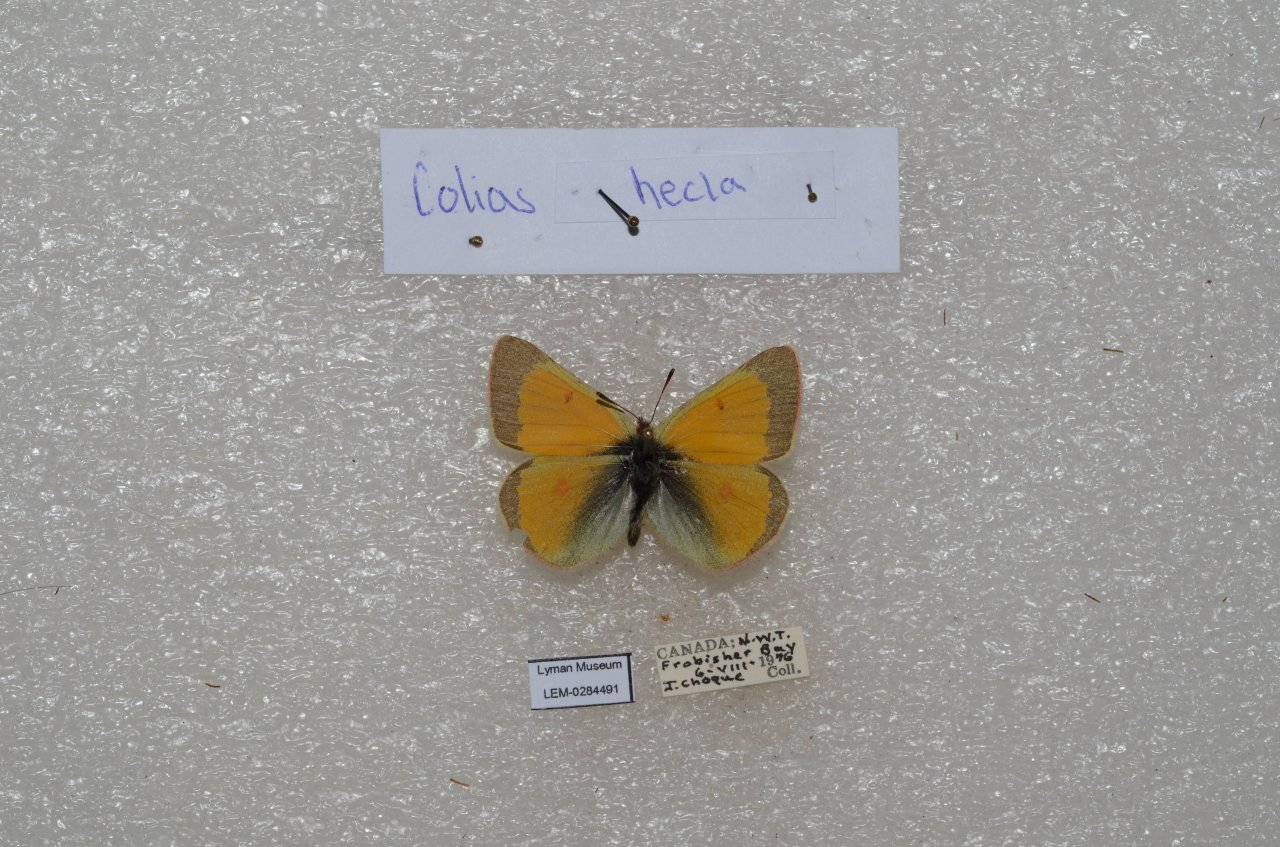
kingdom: Animalia
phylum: Arthropoda
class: Insecta
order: Lepidoptera
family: Pieridae
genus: Colias
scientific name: Colias hecla
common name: Hecla Sulphur
